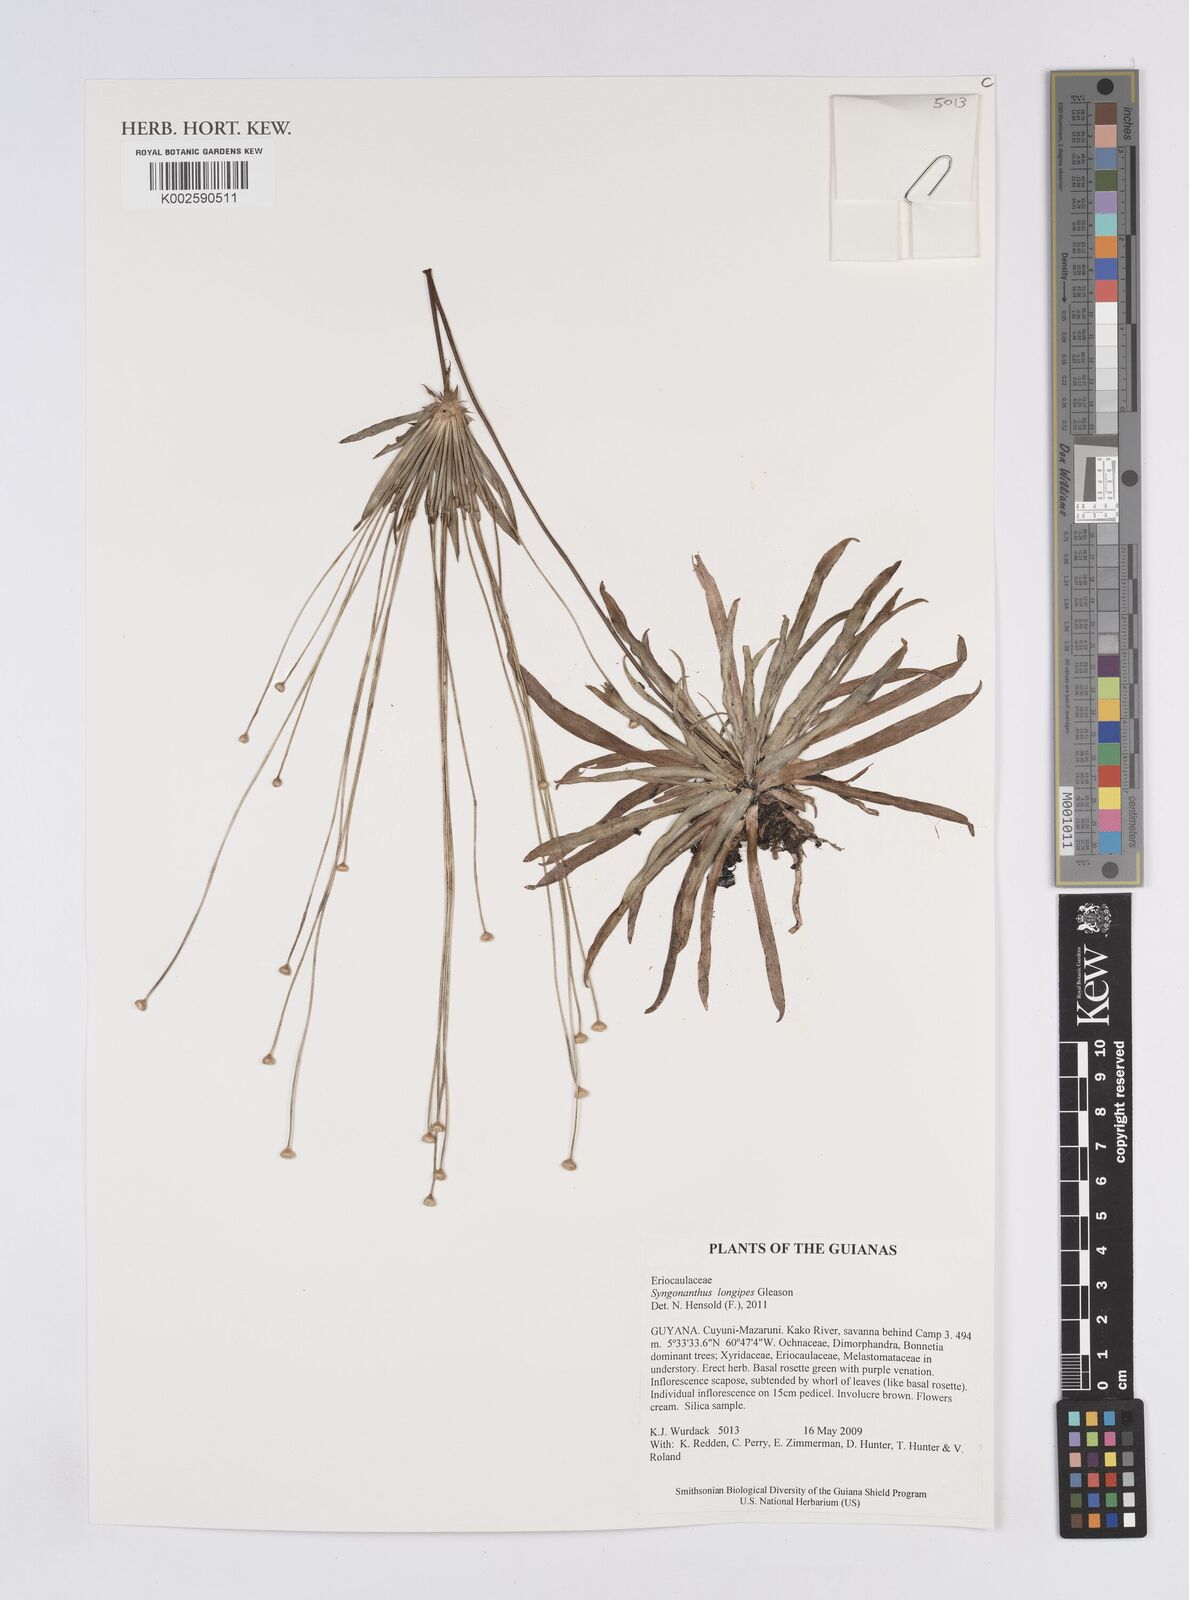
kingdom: Plantae
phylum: Tracheophyta
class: Liliopsida
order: Poales
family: Eriocaulaceae
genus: Syngonanthus
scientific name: Syngonanthus longipes
